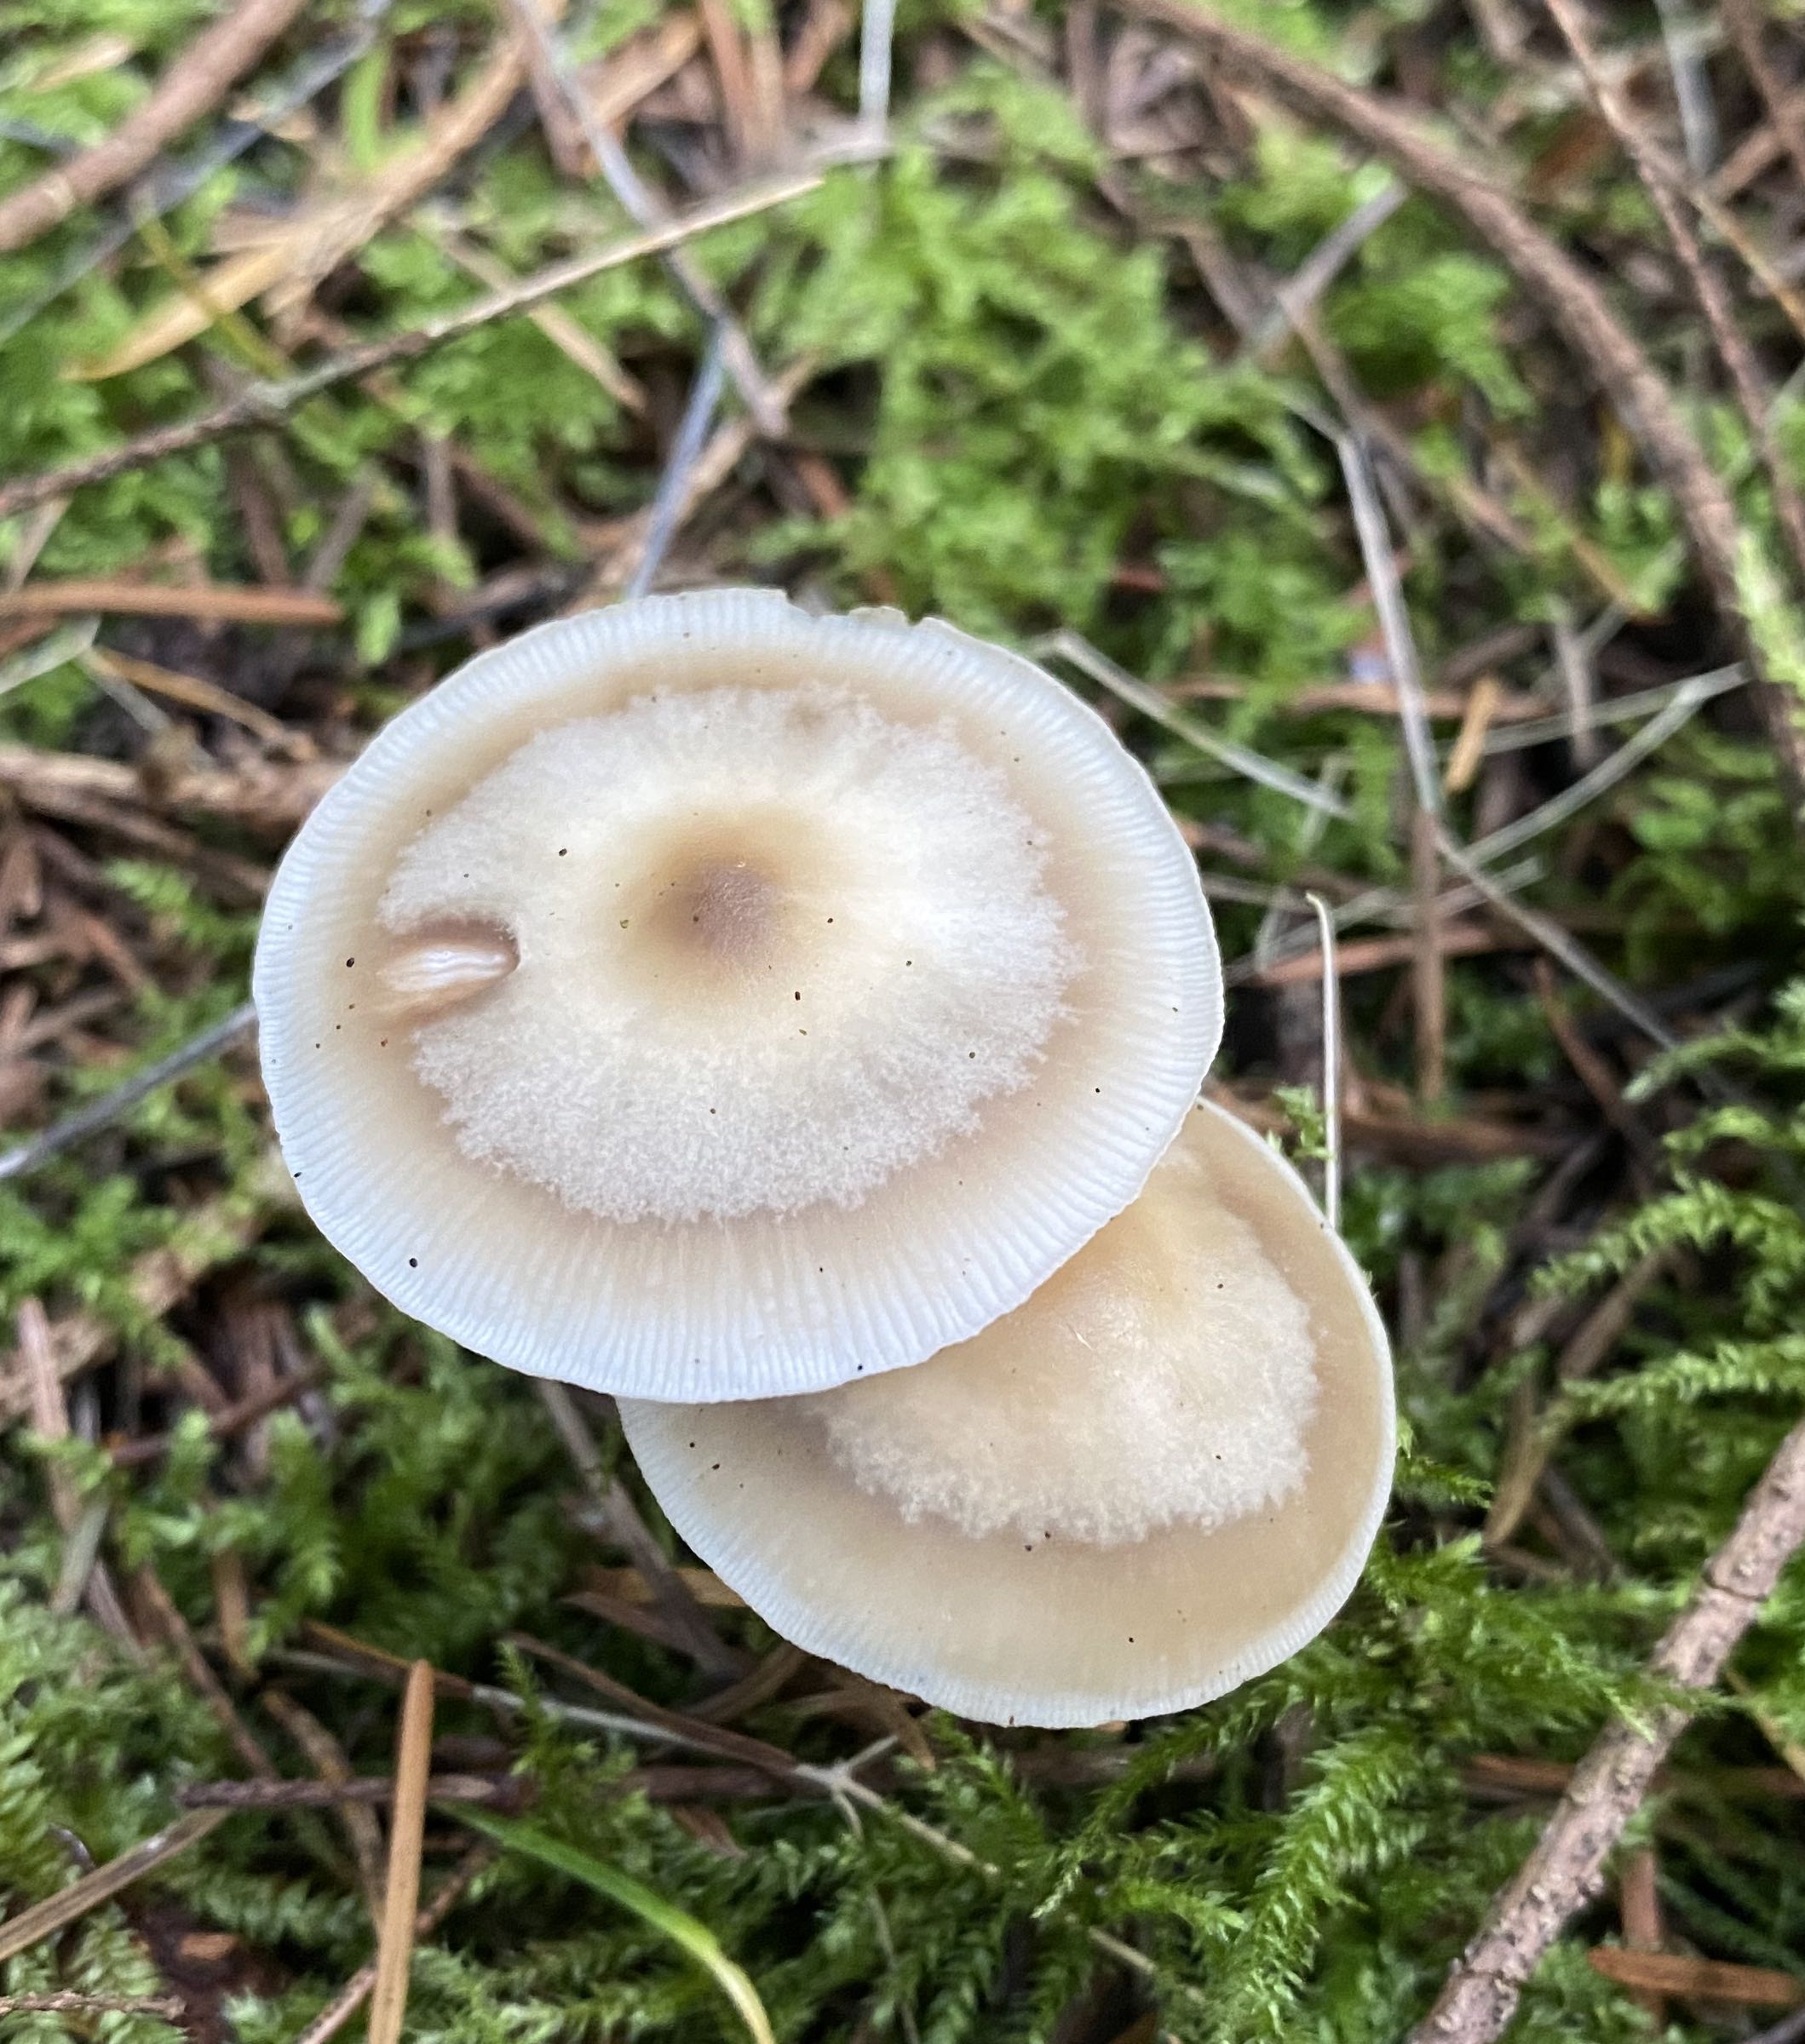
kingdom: Fungi
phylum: Basidiomycota
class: Agaricomycetes
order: Agaricales
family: Omphalotaceae
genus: Rhodocollybia
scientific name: Rhodocollybia asema
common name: horngrå fladhat
